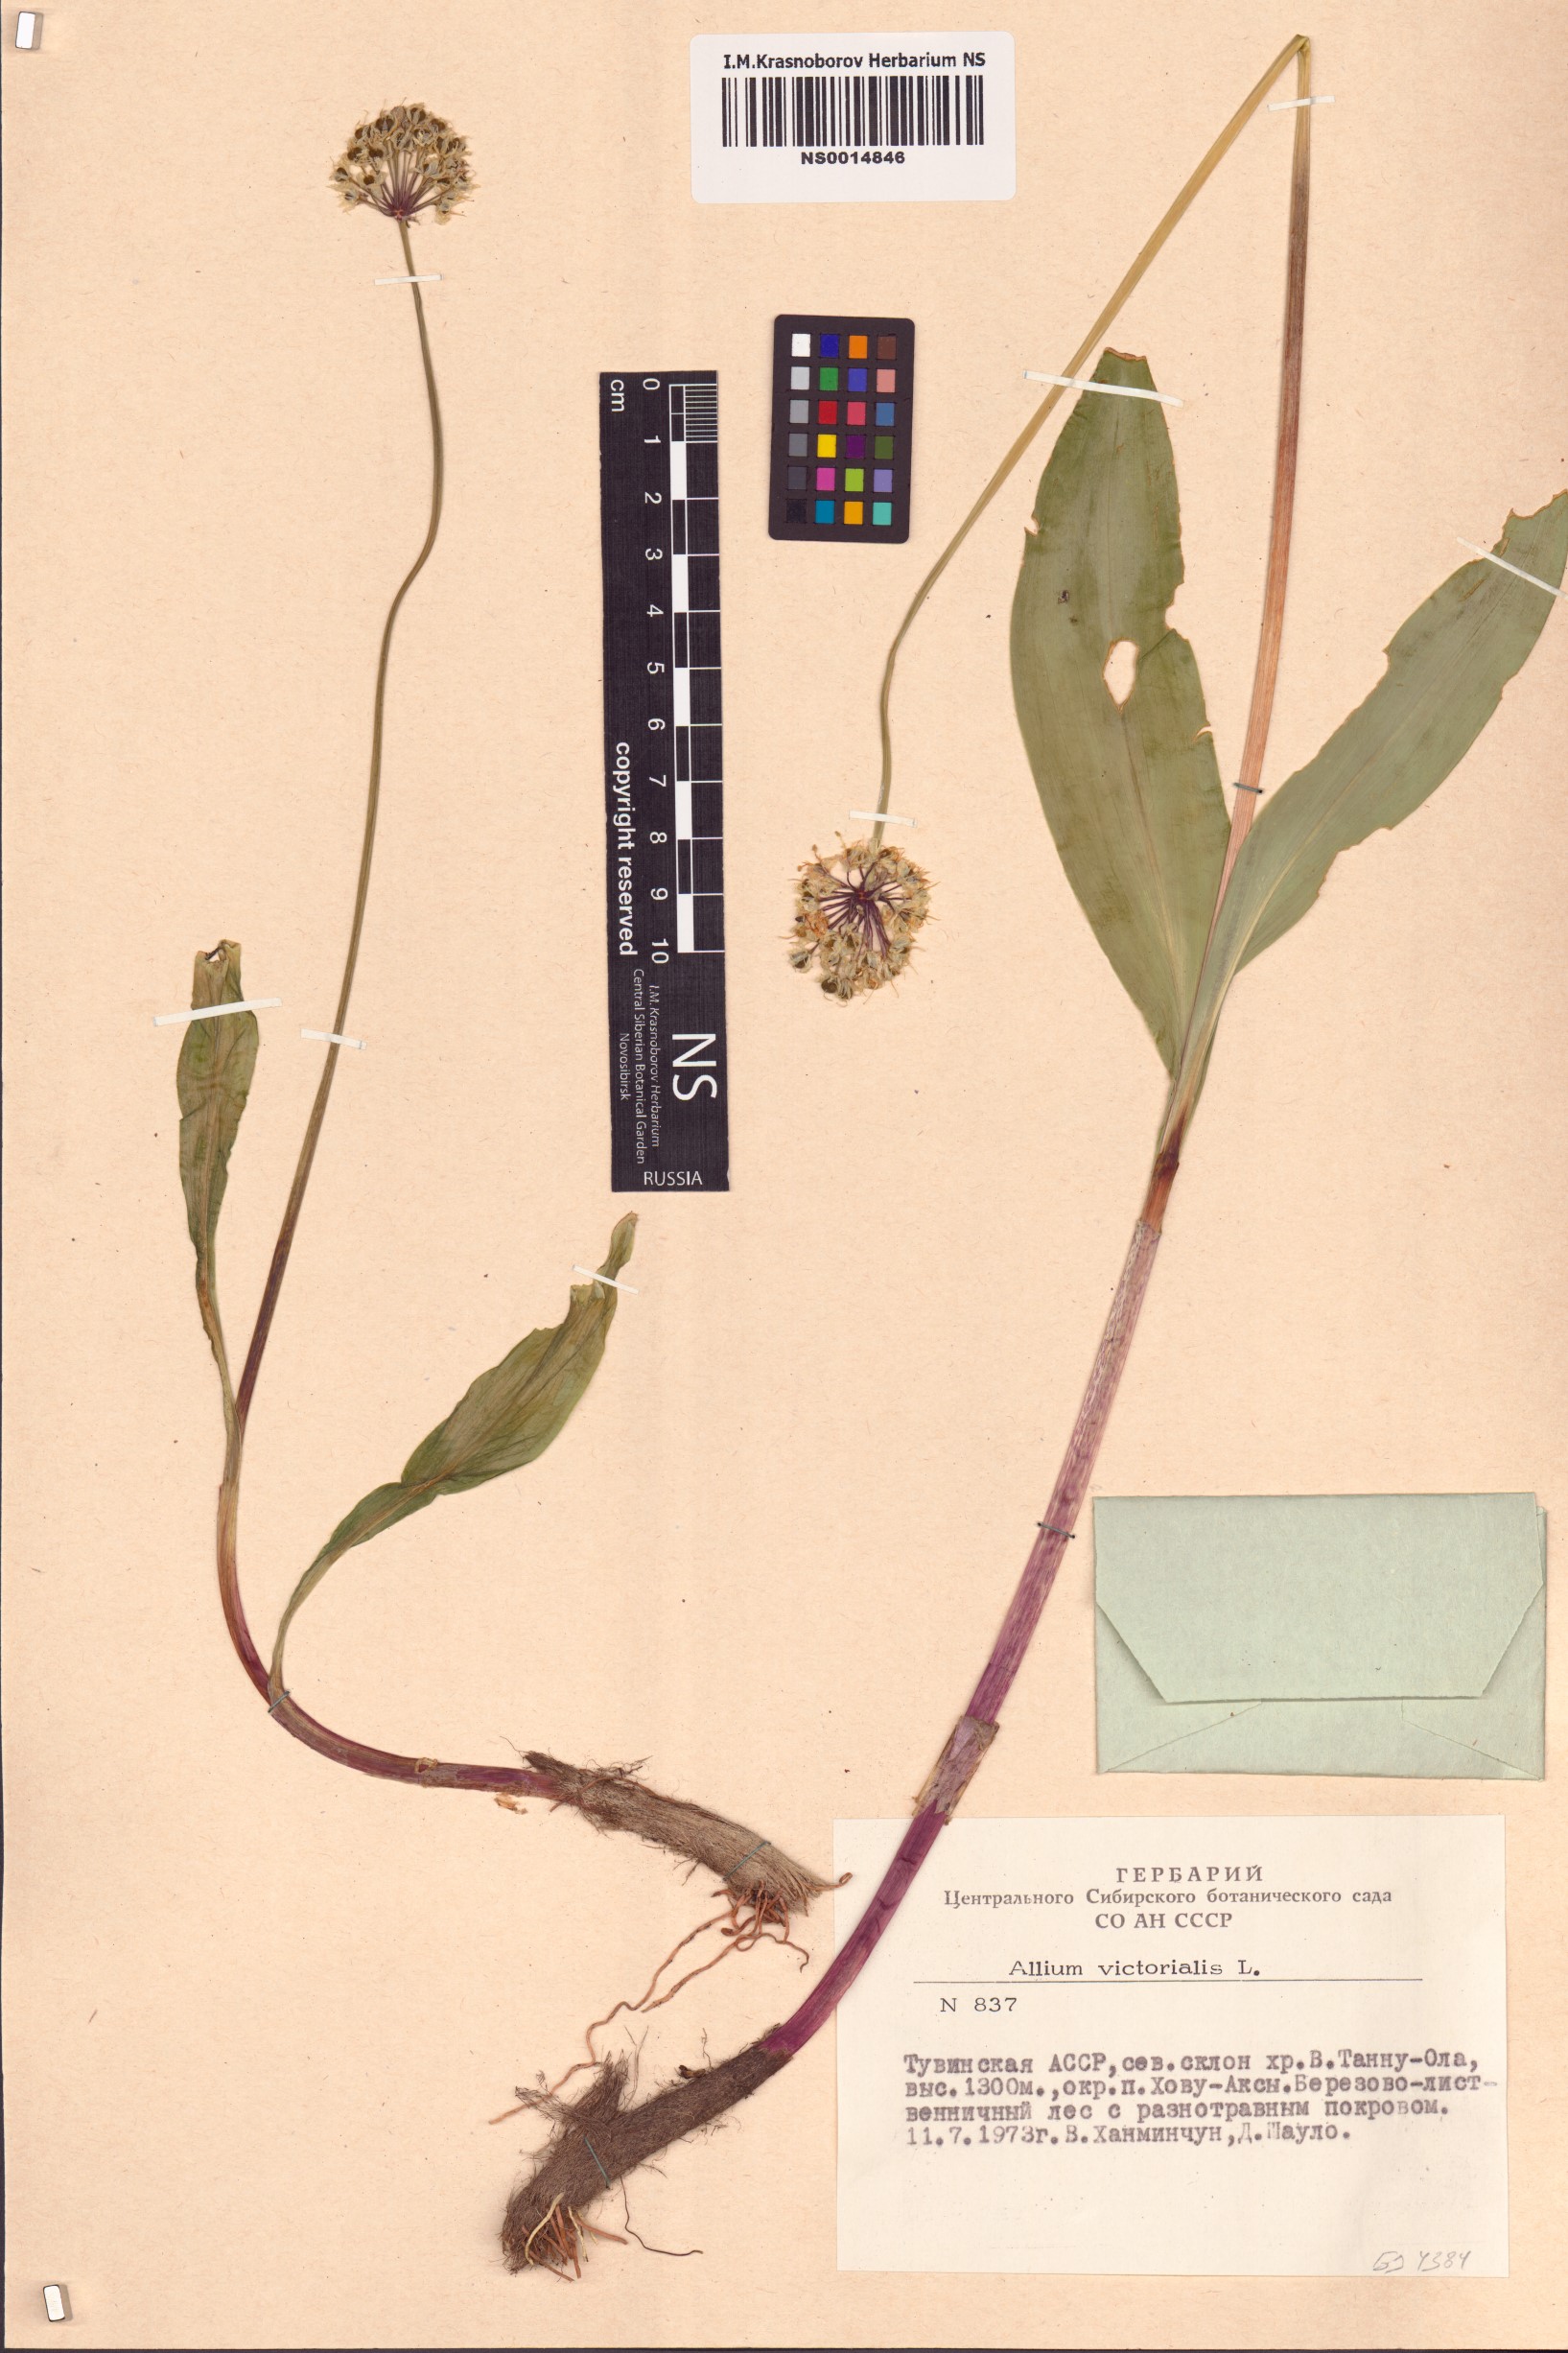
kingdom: Plantae
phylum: Tracheophyta
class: Liliopsida
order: Asparagales
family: Amaryllidaceae
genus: Allium
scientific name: Allium victorialis
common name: Alpine leek
